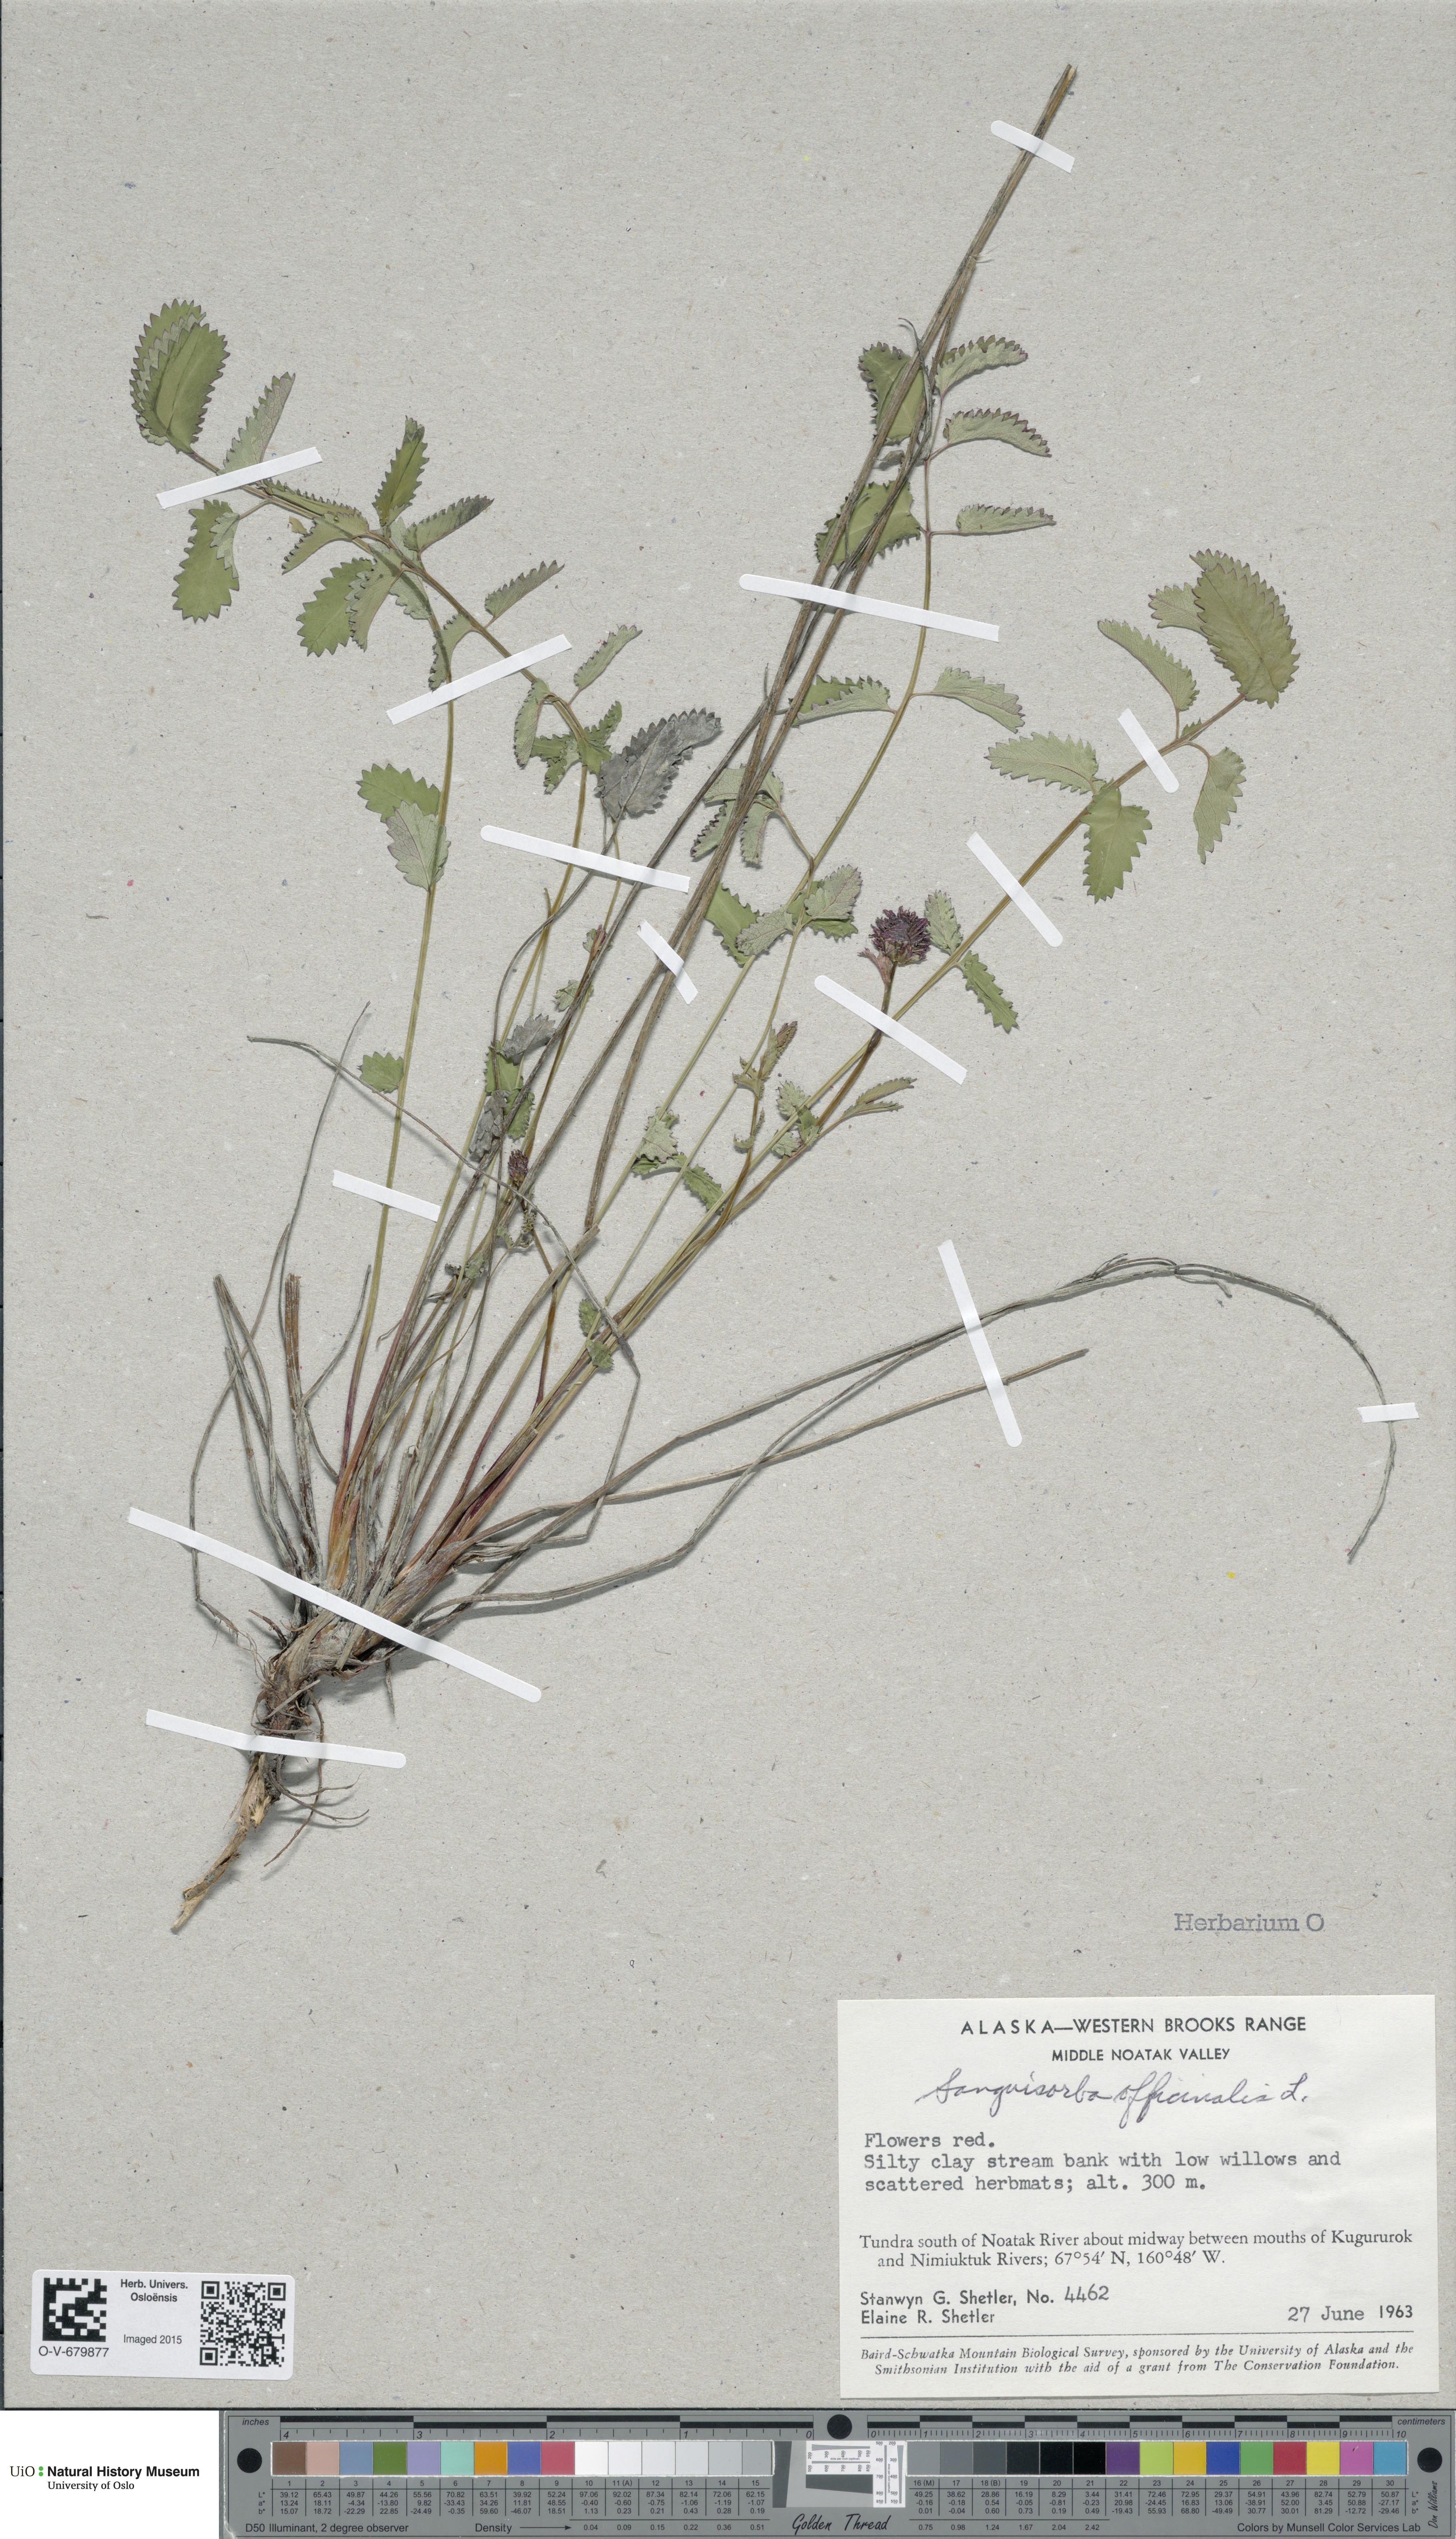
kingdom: Plantae
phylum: Tracheophyta
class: Magnoliopsida
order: Rosales
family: Rosaceae
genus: Sanguisorba
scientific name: Sanguisorba officinalis
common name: Great burnet
